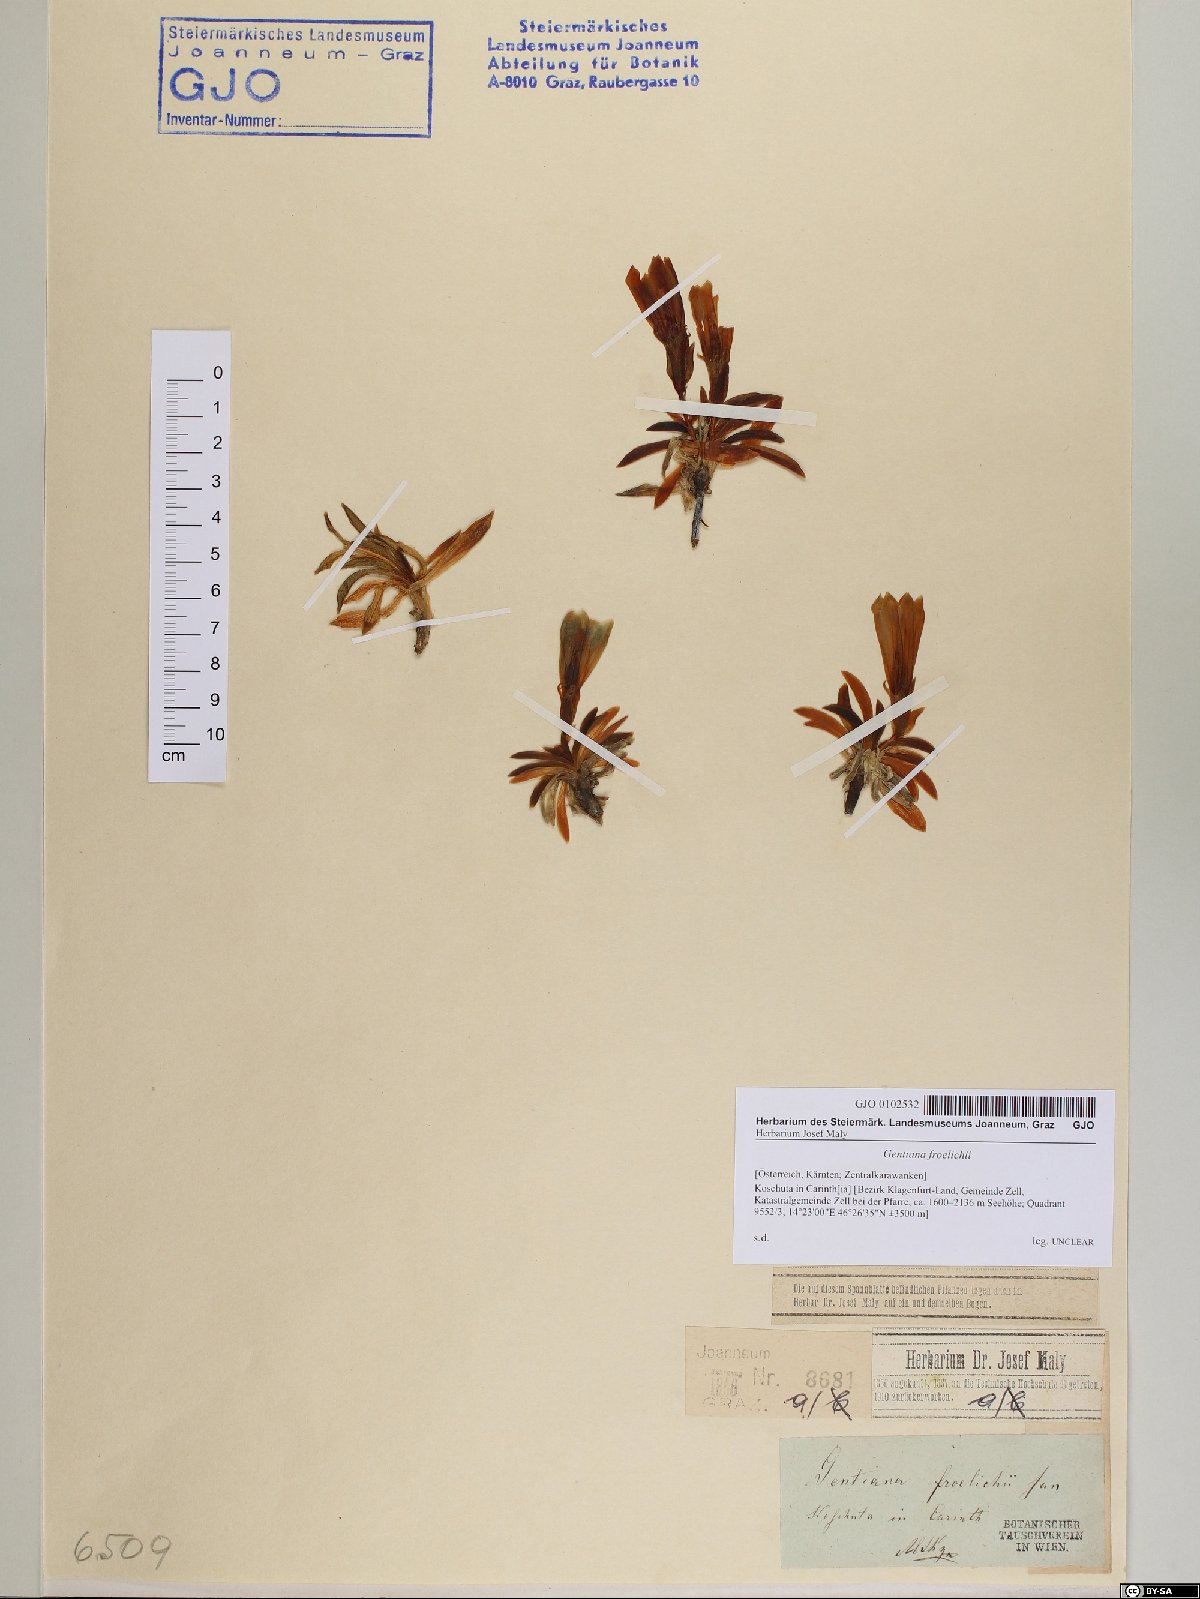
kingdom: Plantae
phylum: Tracheophyta
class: Magnoliopsida
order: Gentianales
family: Gentianaceae
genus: Gentiana
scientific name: Gentiana froelichii
